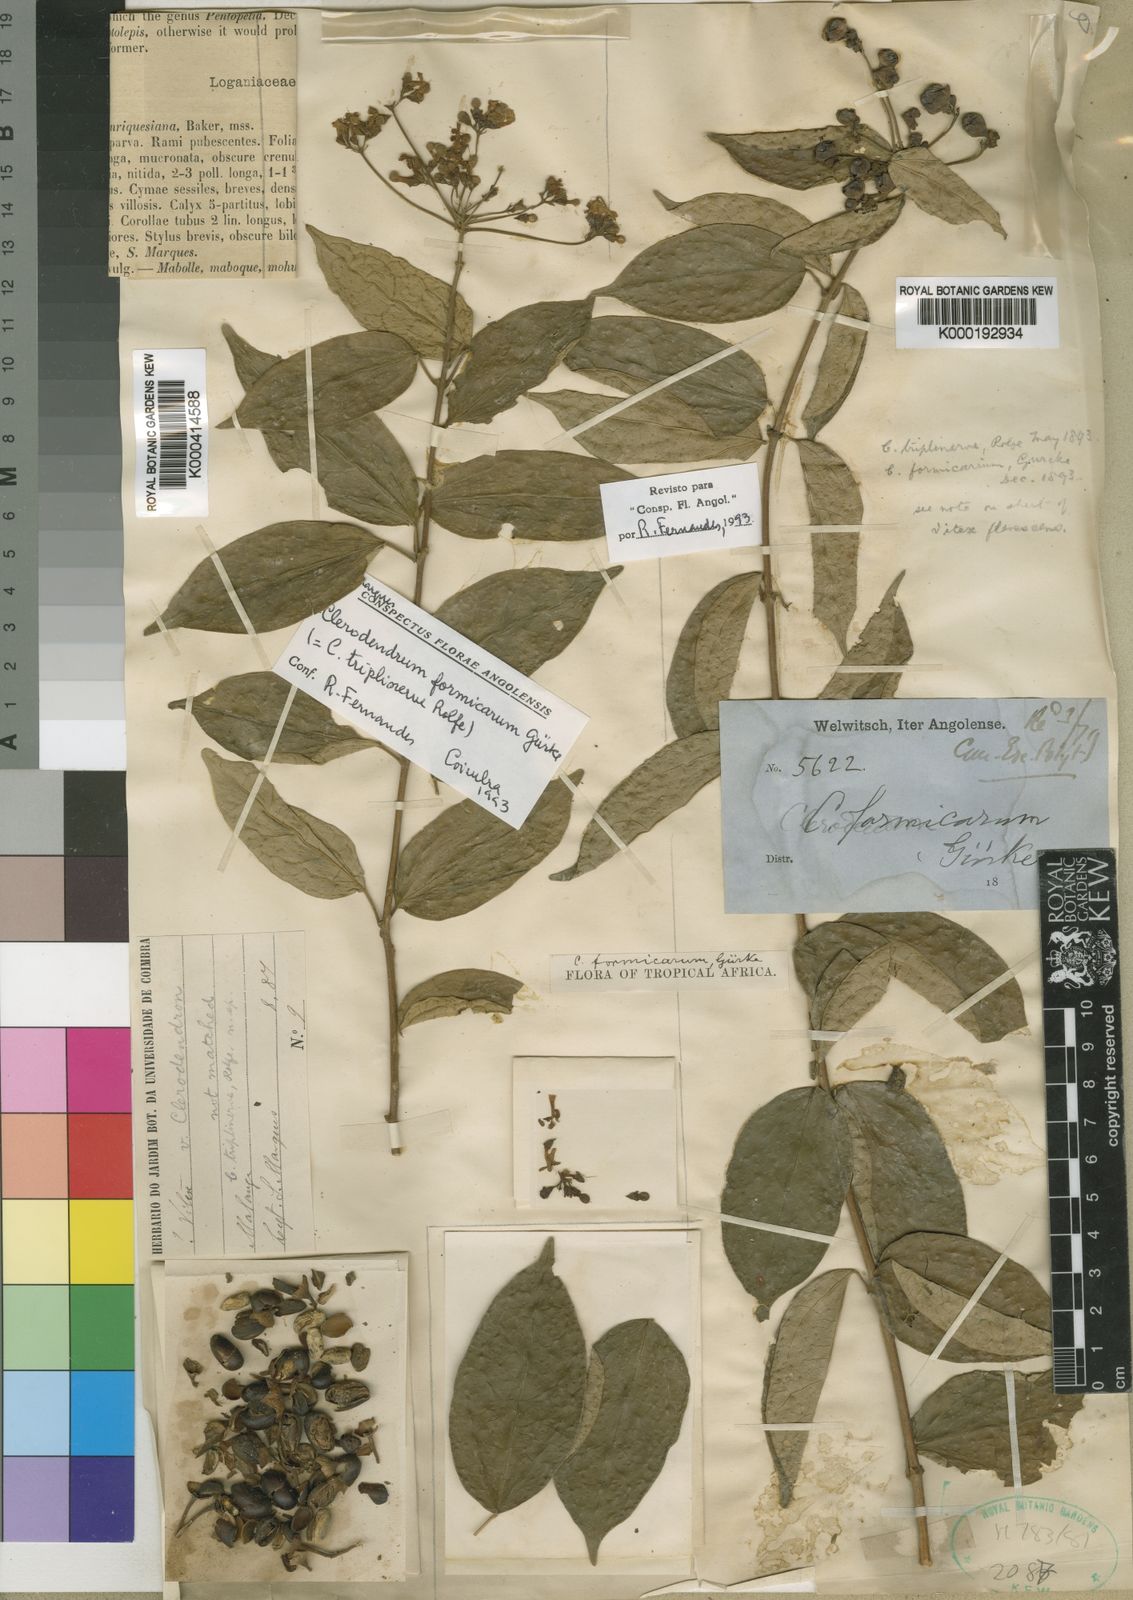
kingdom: Plantae
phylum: Tracheophyta
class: Magnoliopsida
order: Lamiales
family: Lamiaceae
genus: Clerodendrum
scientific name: Clerodendrum
